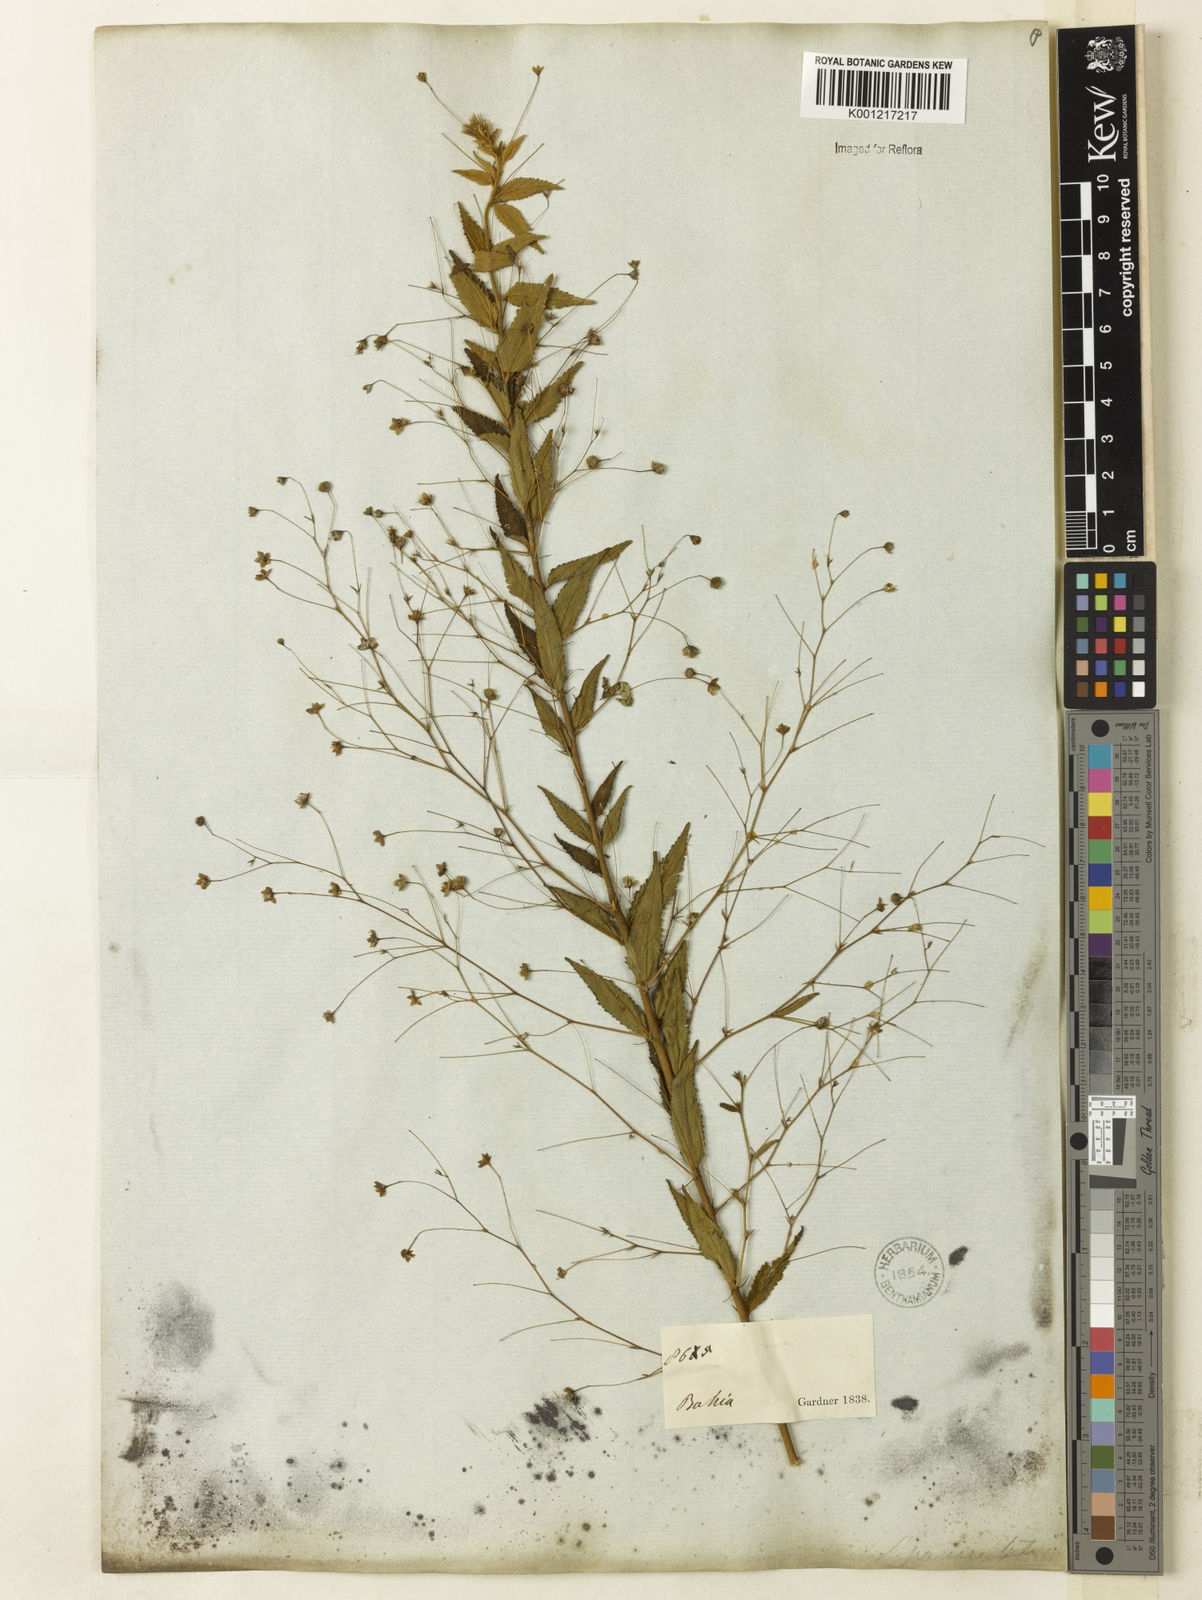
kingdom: Plantae
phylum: Tracheophyta
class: Magnoliopsida
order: Malvales
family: Malvaceae
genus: Sidastrum
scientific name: Sidastrum paniculatum
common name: Panicled sandmallow
